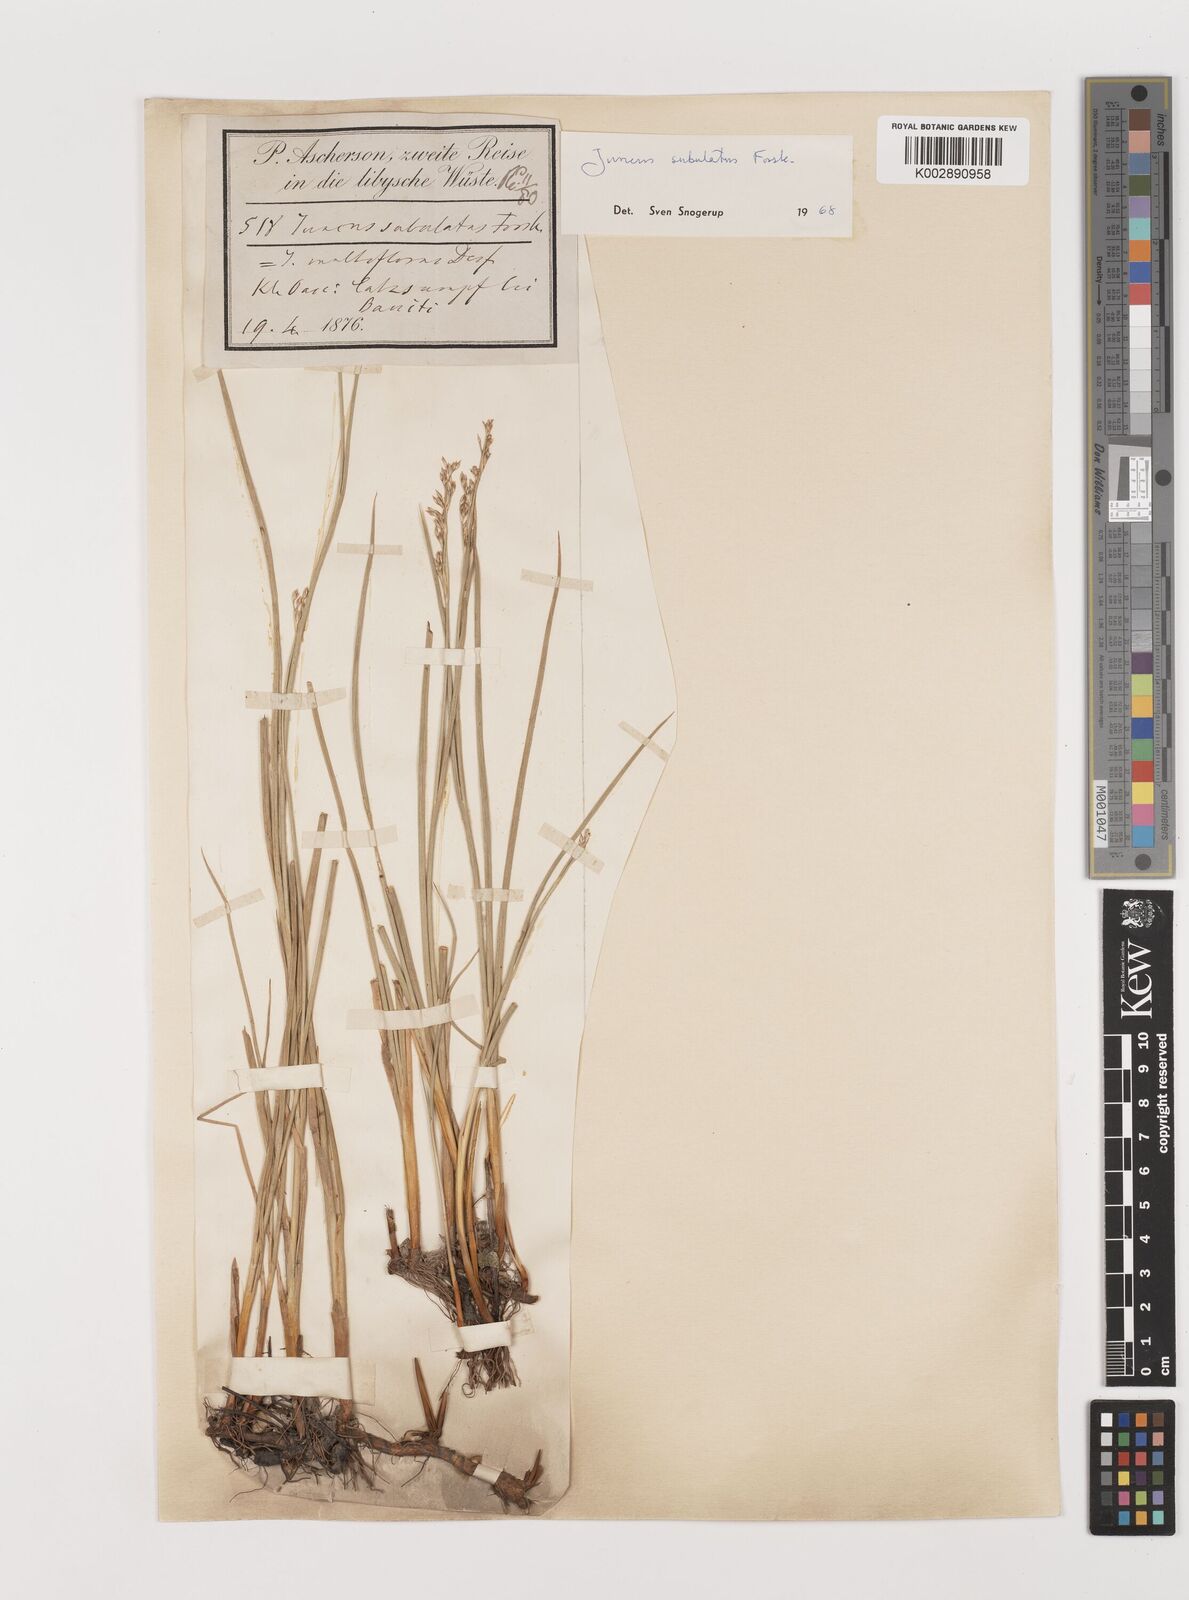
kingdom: Plantae
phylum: Tracheophyta
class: Liliopsida
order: Poales
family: Juncaceae
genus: Juncus
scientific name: Juncus subulatus
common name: Somerset rush
